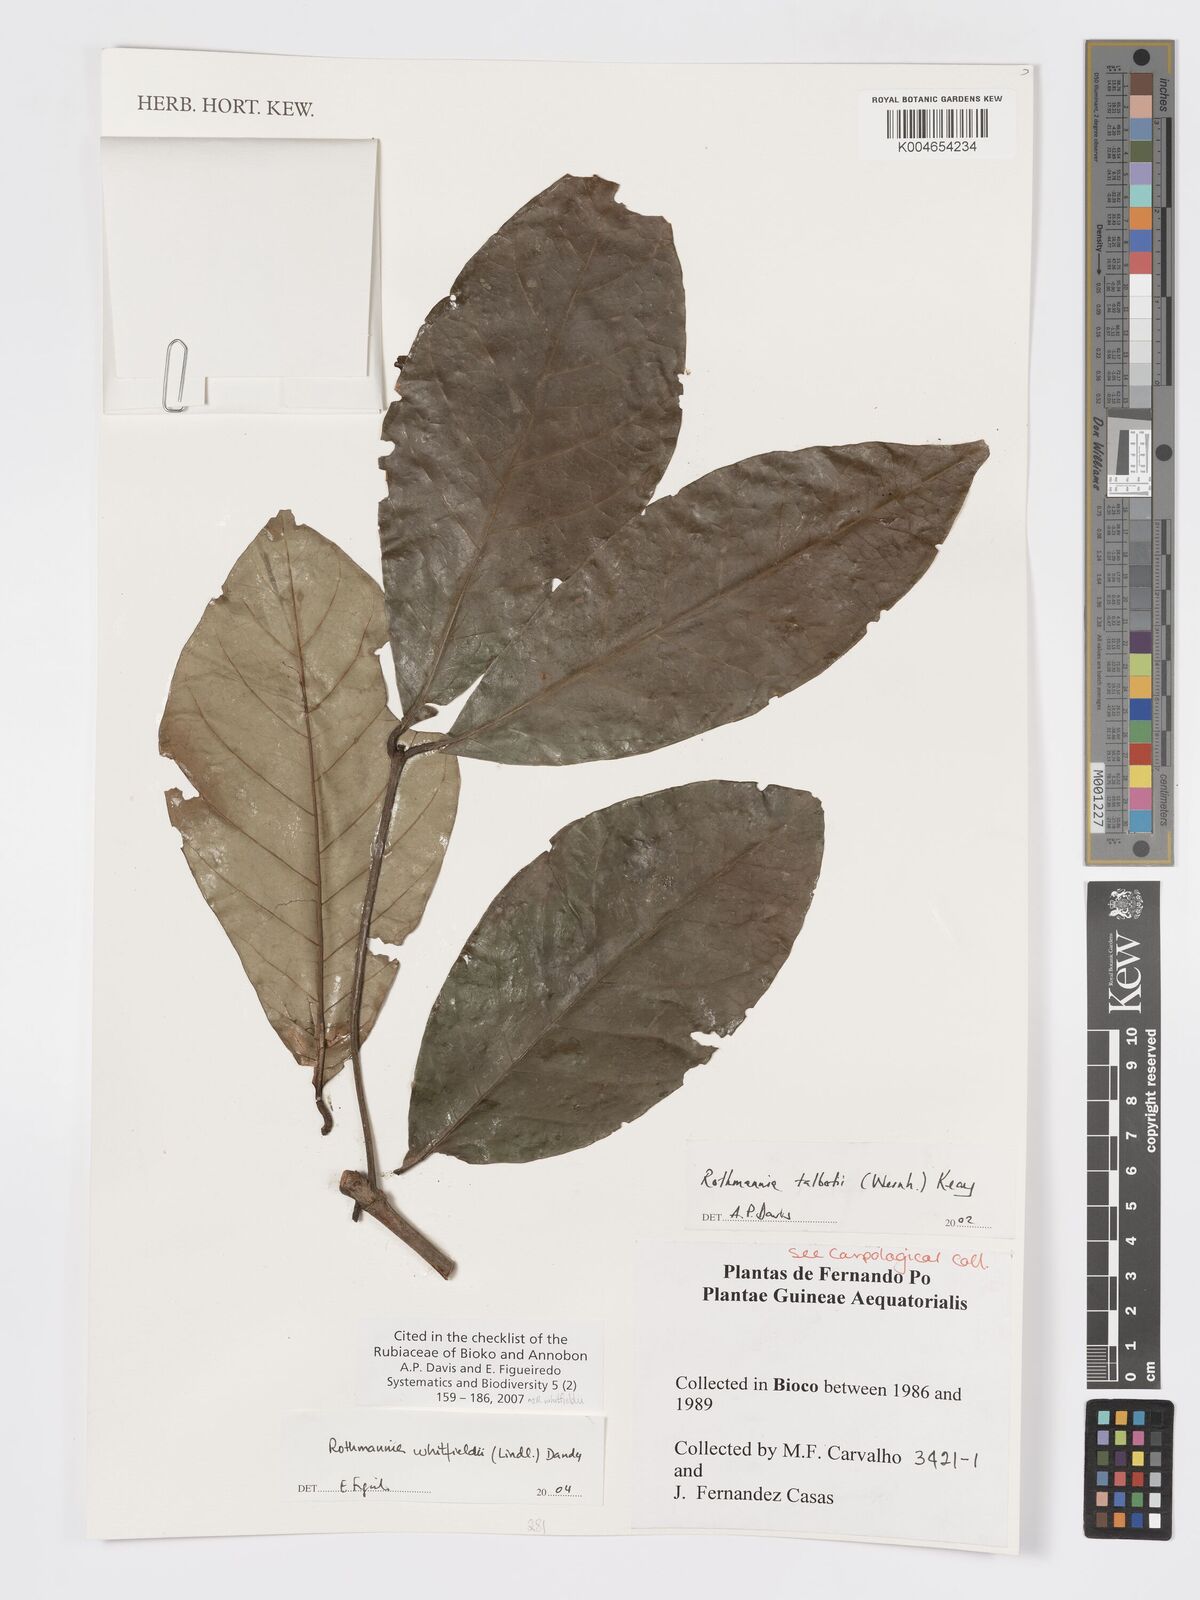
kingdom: Plantae
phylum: Tracheophyta
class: Magnoliopsida
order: Gentianales
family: Rubiaceae
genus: Rothmannia
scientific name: Rothmannia whitfieldii
